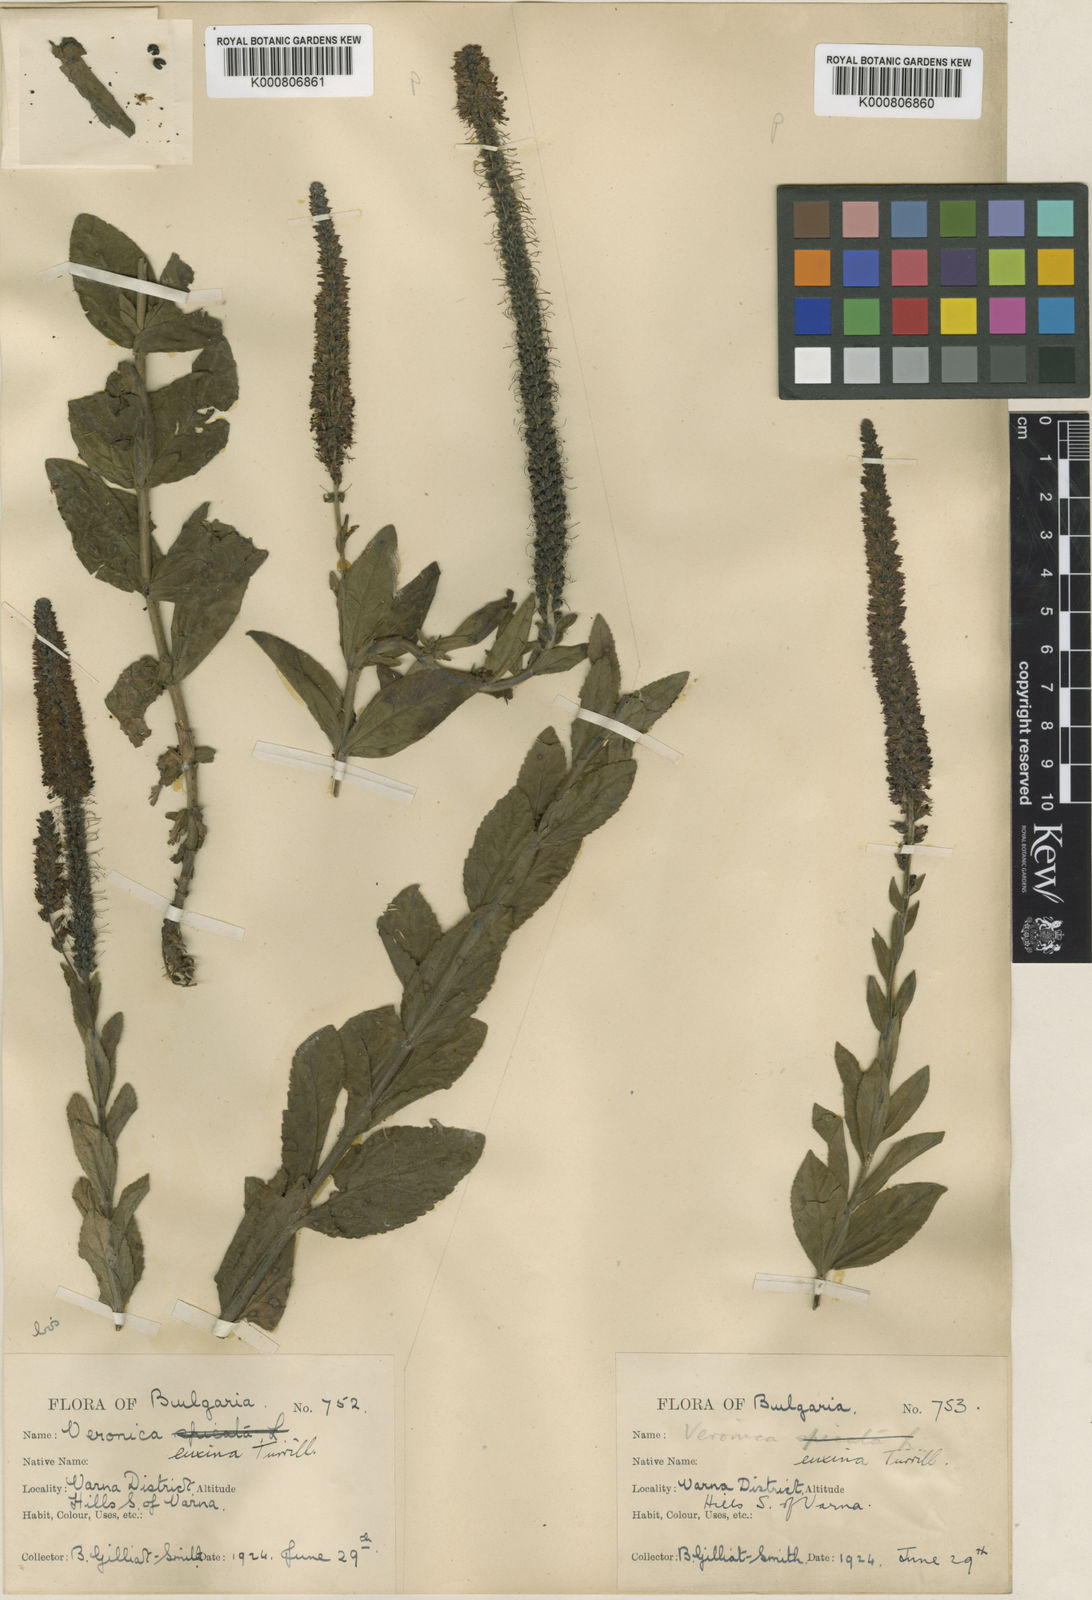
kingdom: Plantae
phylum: Tracheophyta
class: Magnoliopsida
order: Lamiales
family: Plantaginaceae
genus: Veronica
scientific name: Veronica spicata
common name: Spiked speedwell
